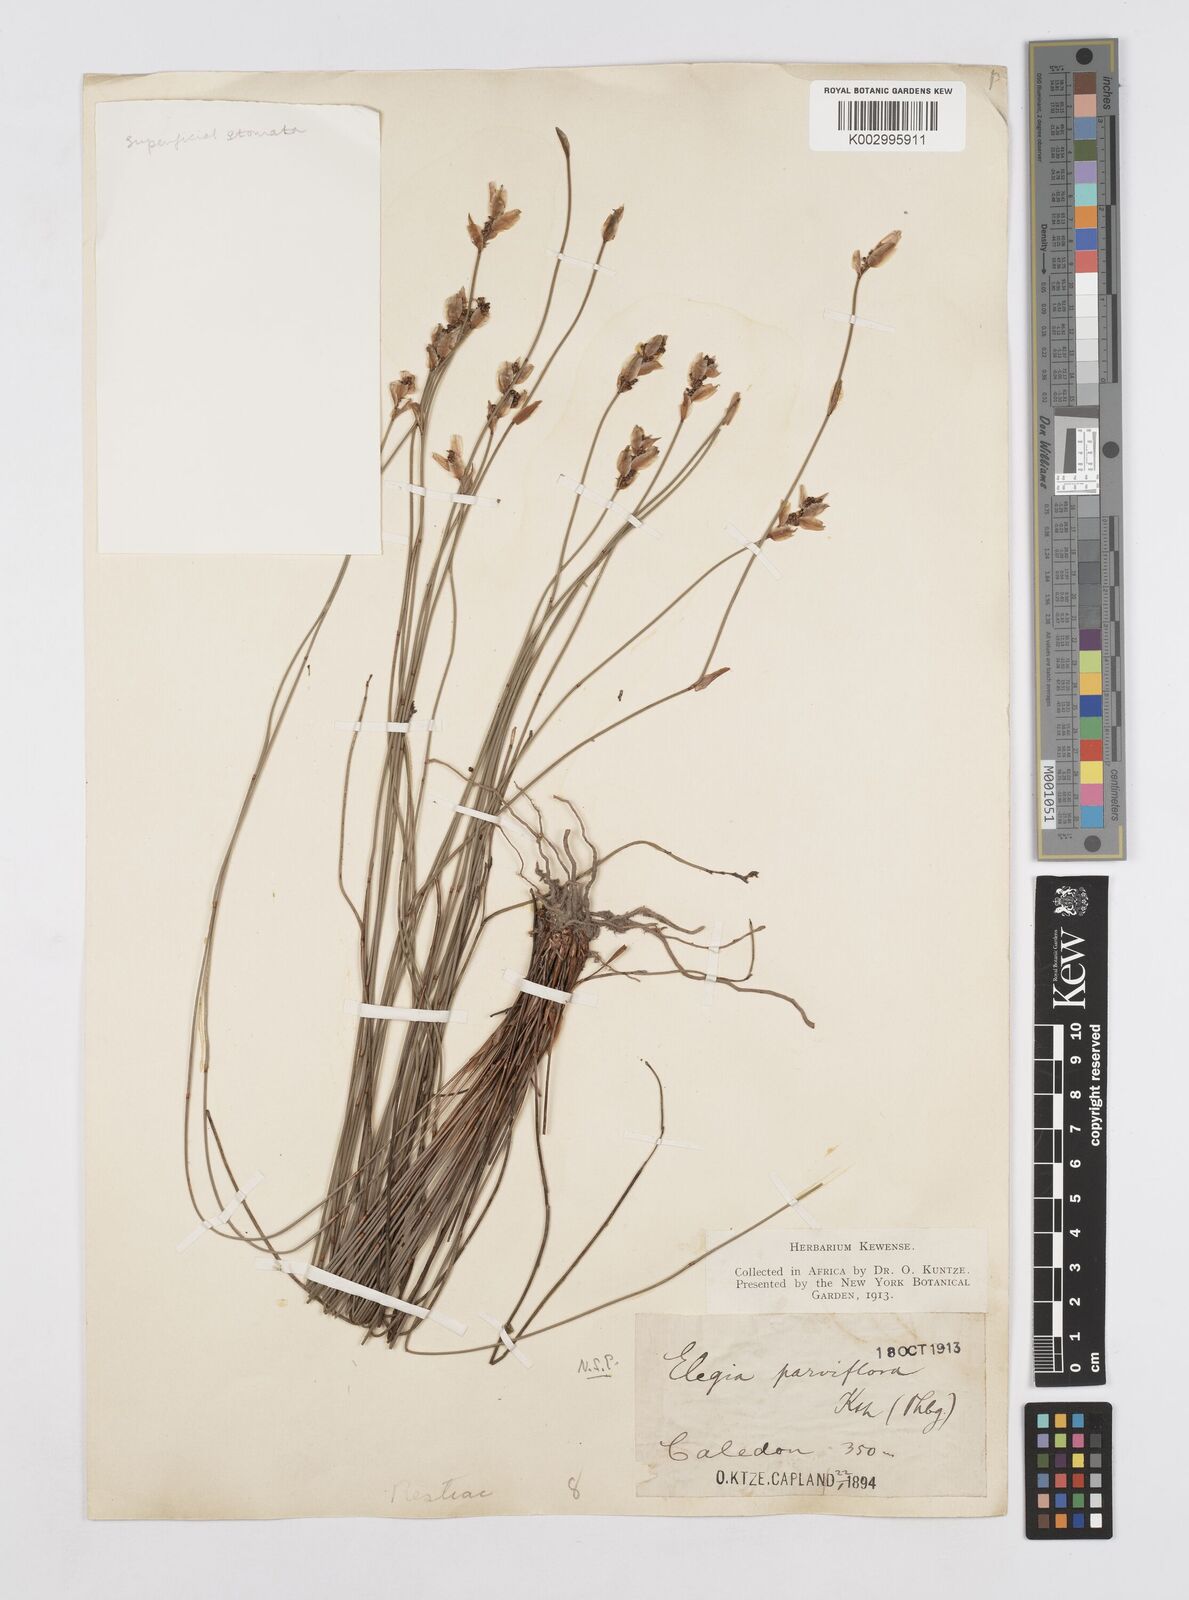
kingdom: Plantae
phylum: Tracheophyta
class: Liliopsida
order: Poales
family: Restionaceae
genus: Cannomois
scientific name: Cannomois parviflora
